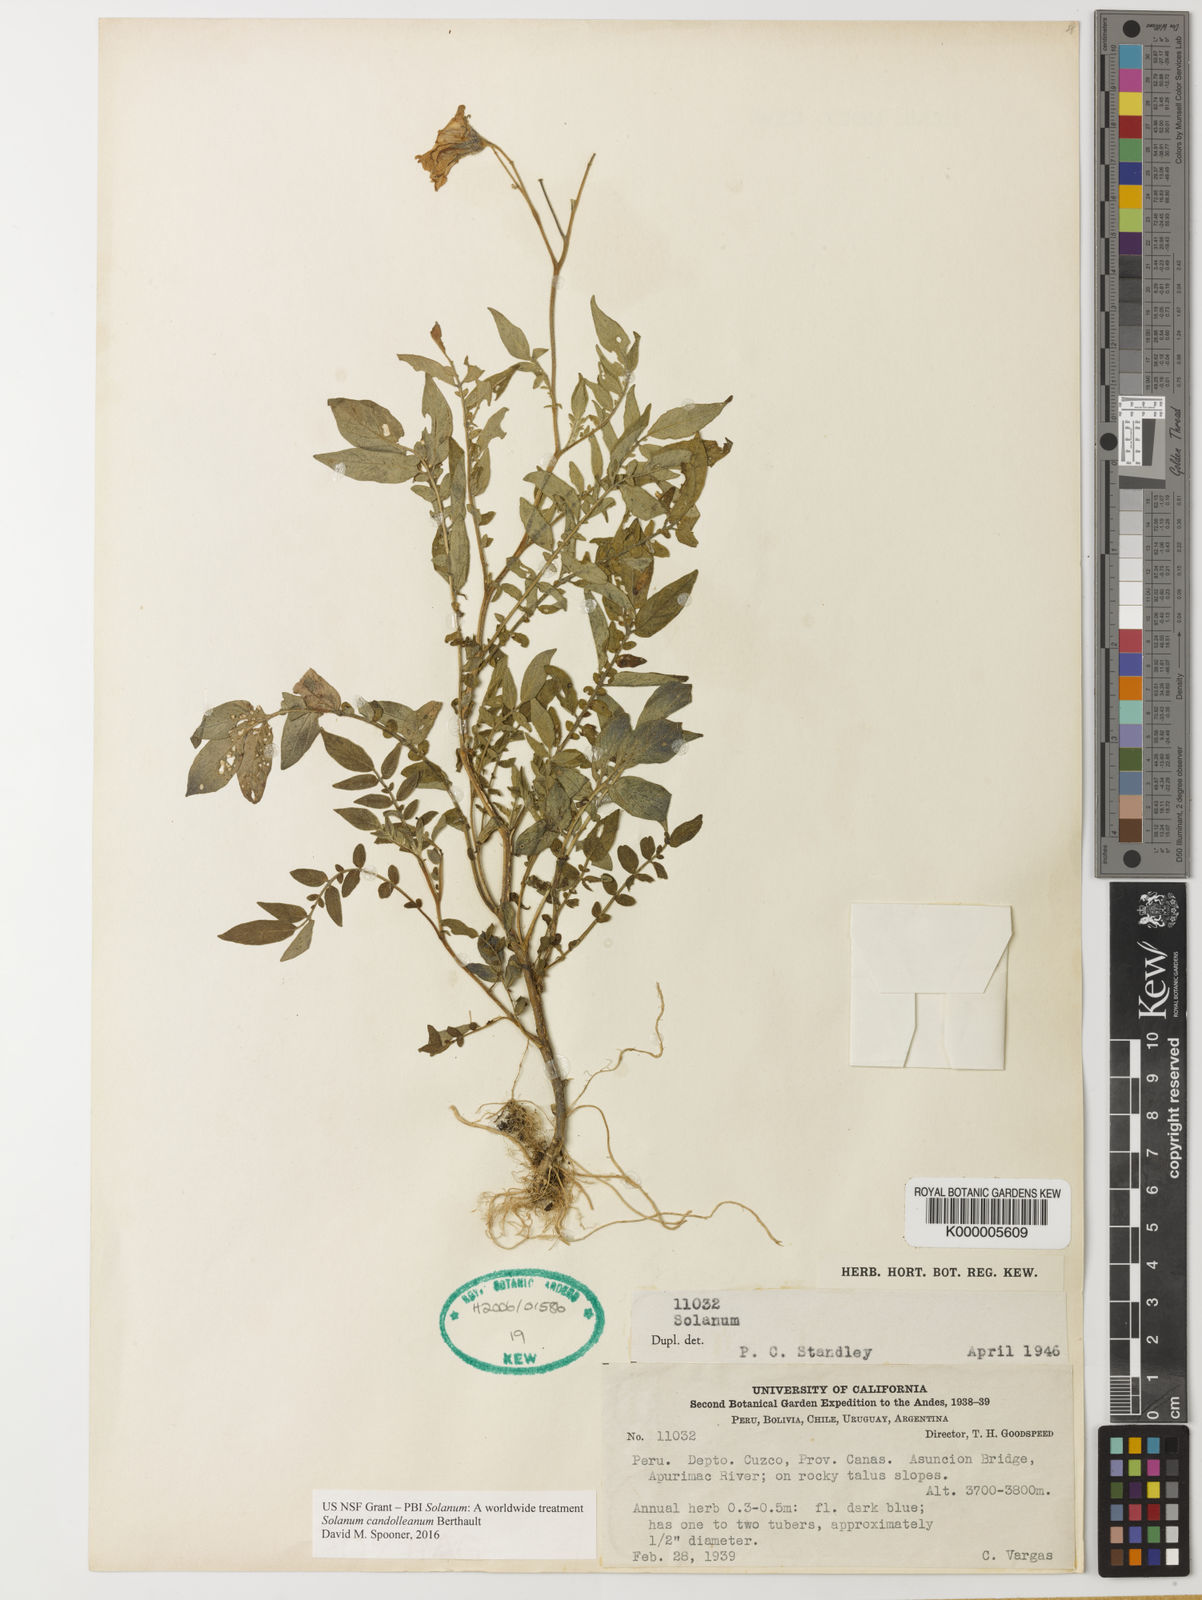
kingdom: Plantae
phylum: Tracheophyta
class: Magnoliopsida
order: Solanales
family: Solanaceae
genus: Solanum
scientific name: Solanum candolleanum
